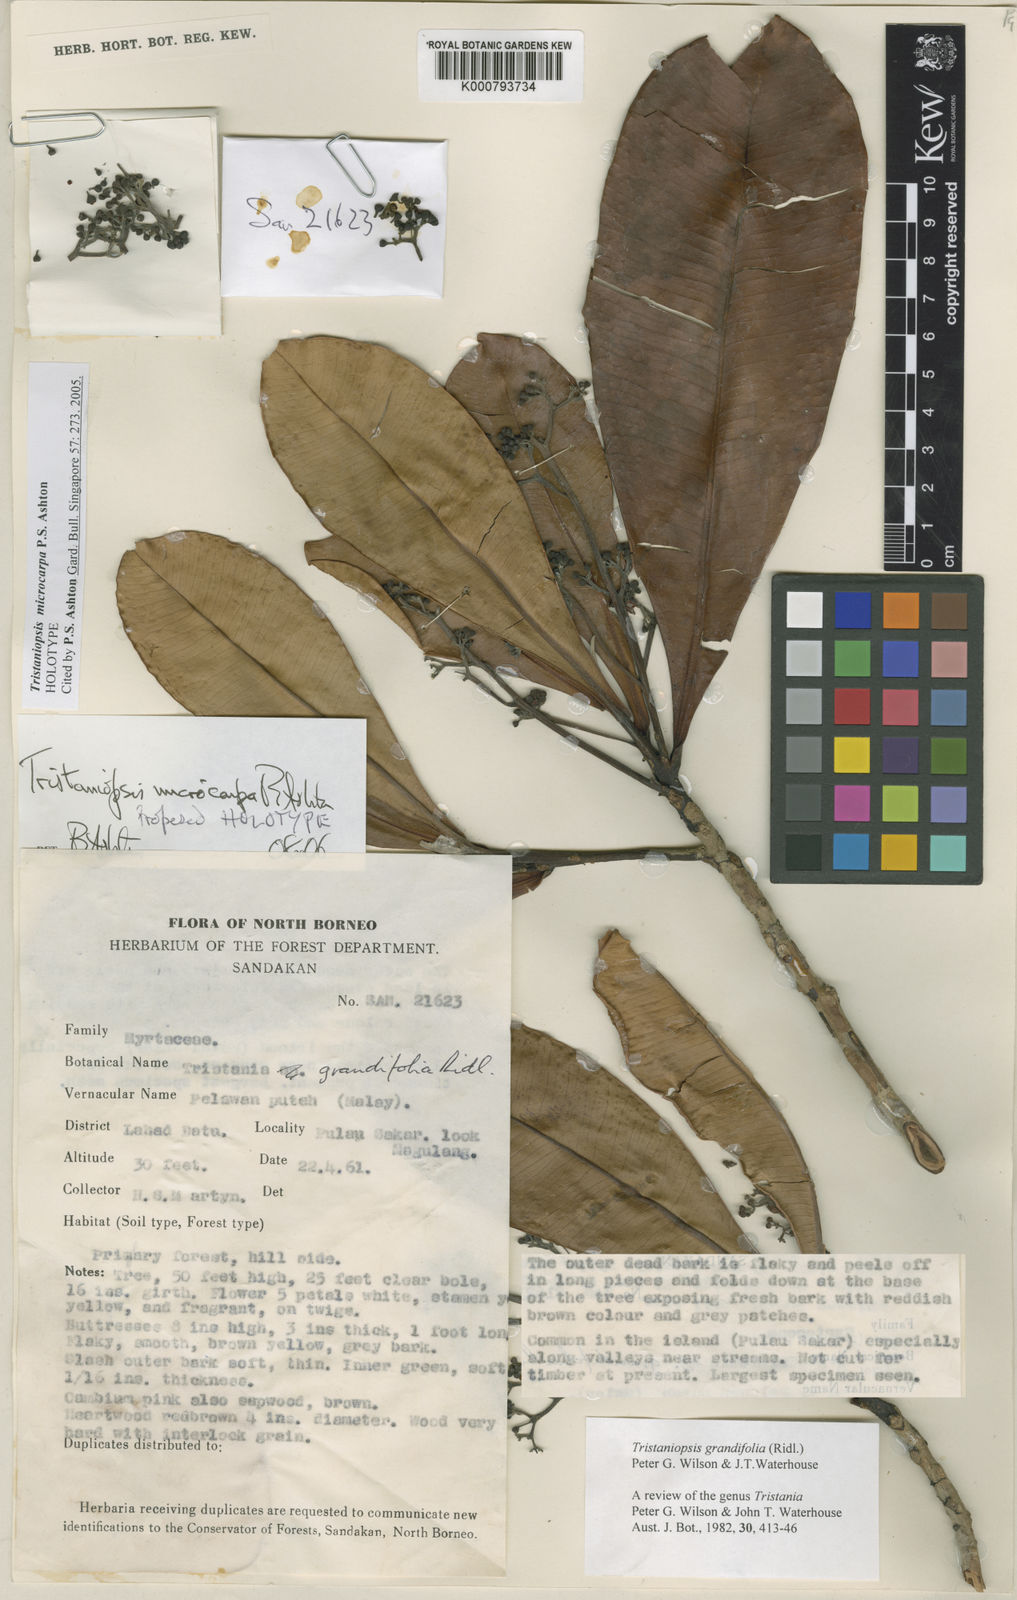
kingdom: Plantae
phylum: Tracheophyta
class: Magnoliopsida
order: Myrtales
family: Myrtaceae
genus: Tristaniopsis
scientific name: Tristaniopsis microcarpa
